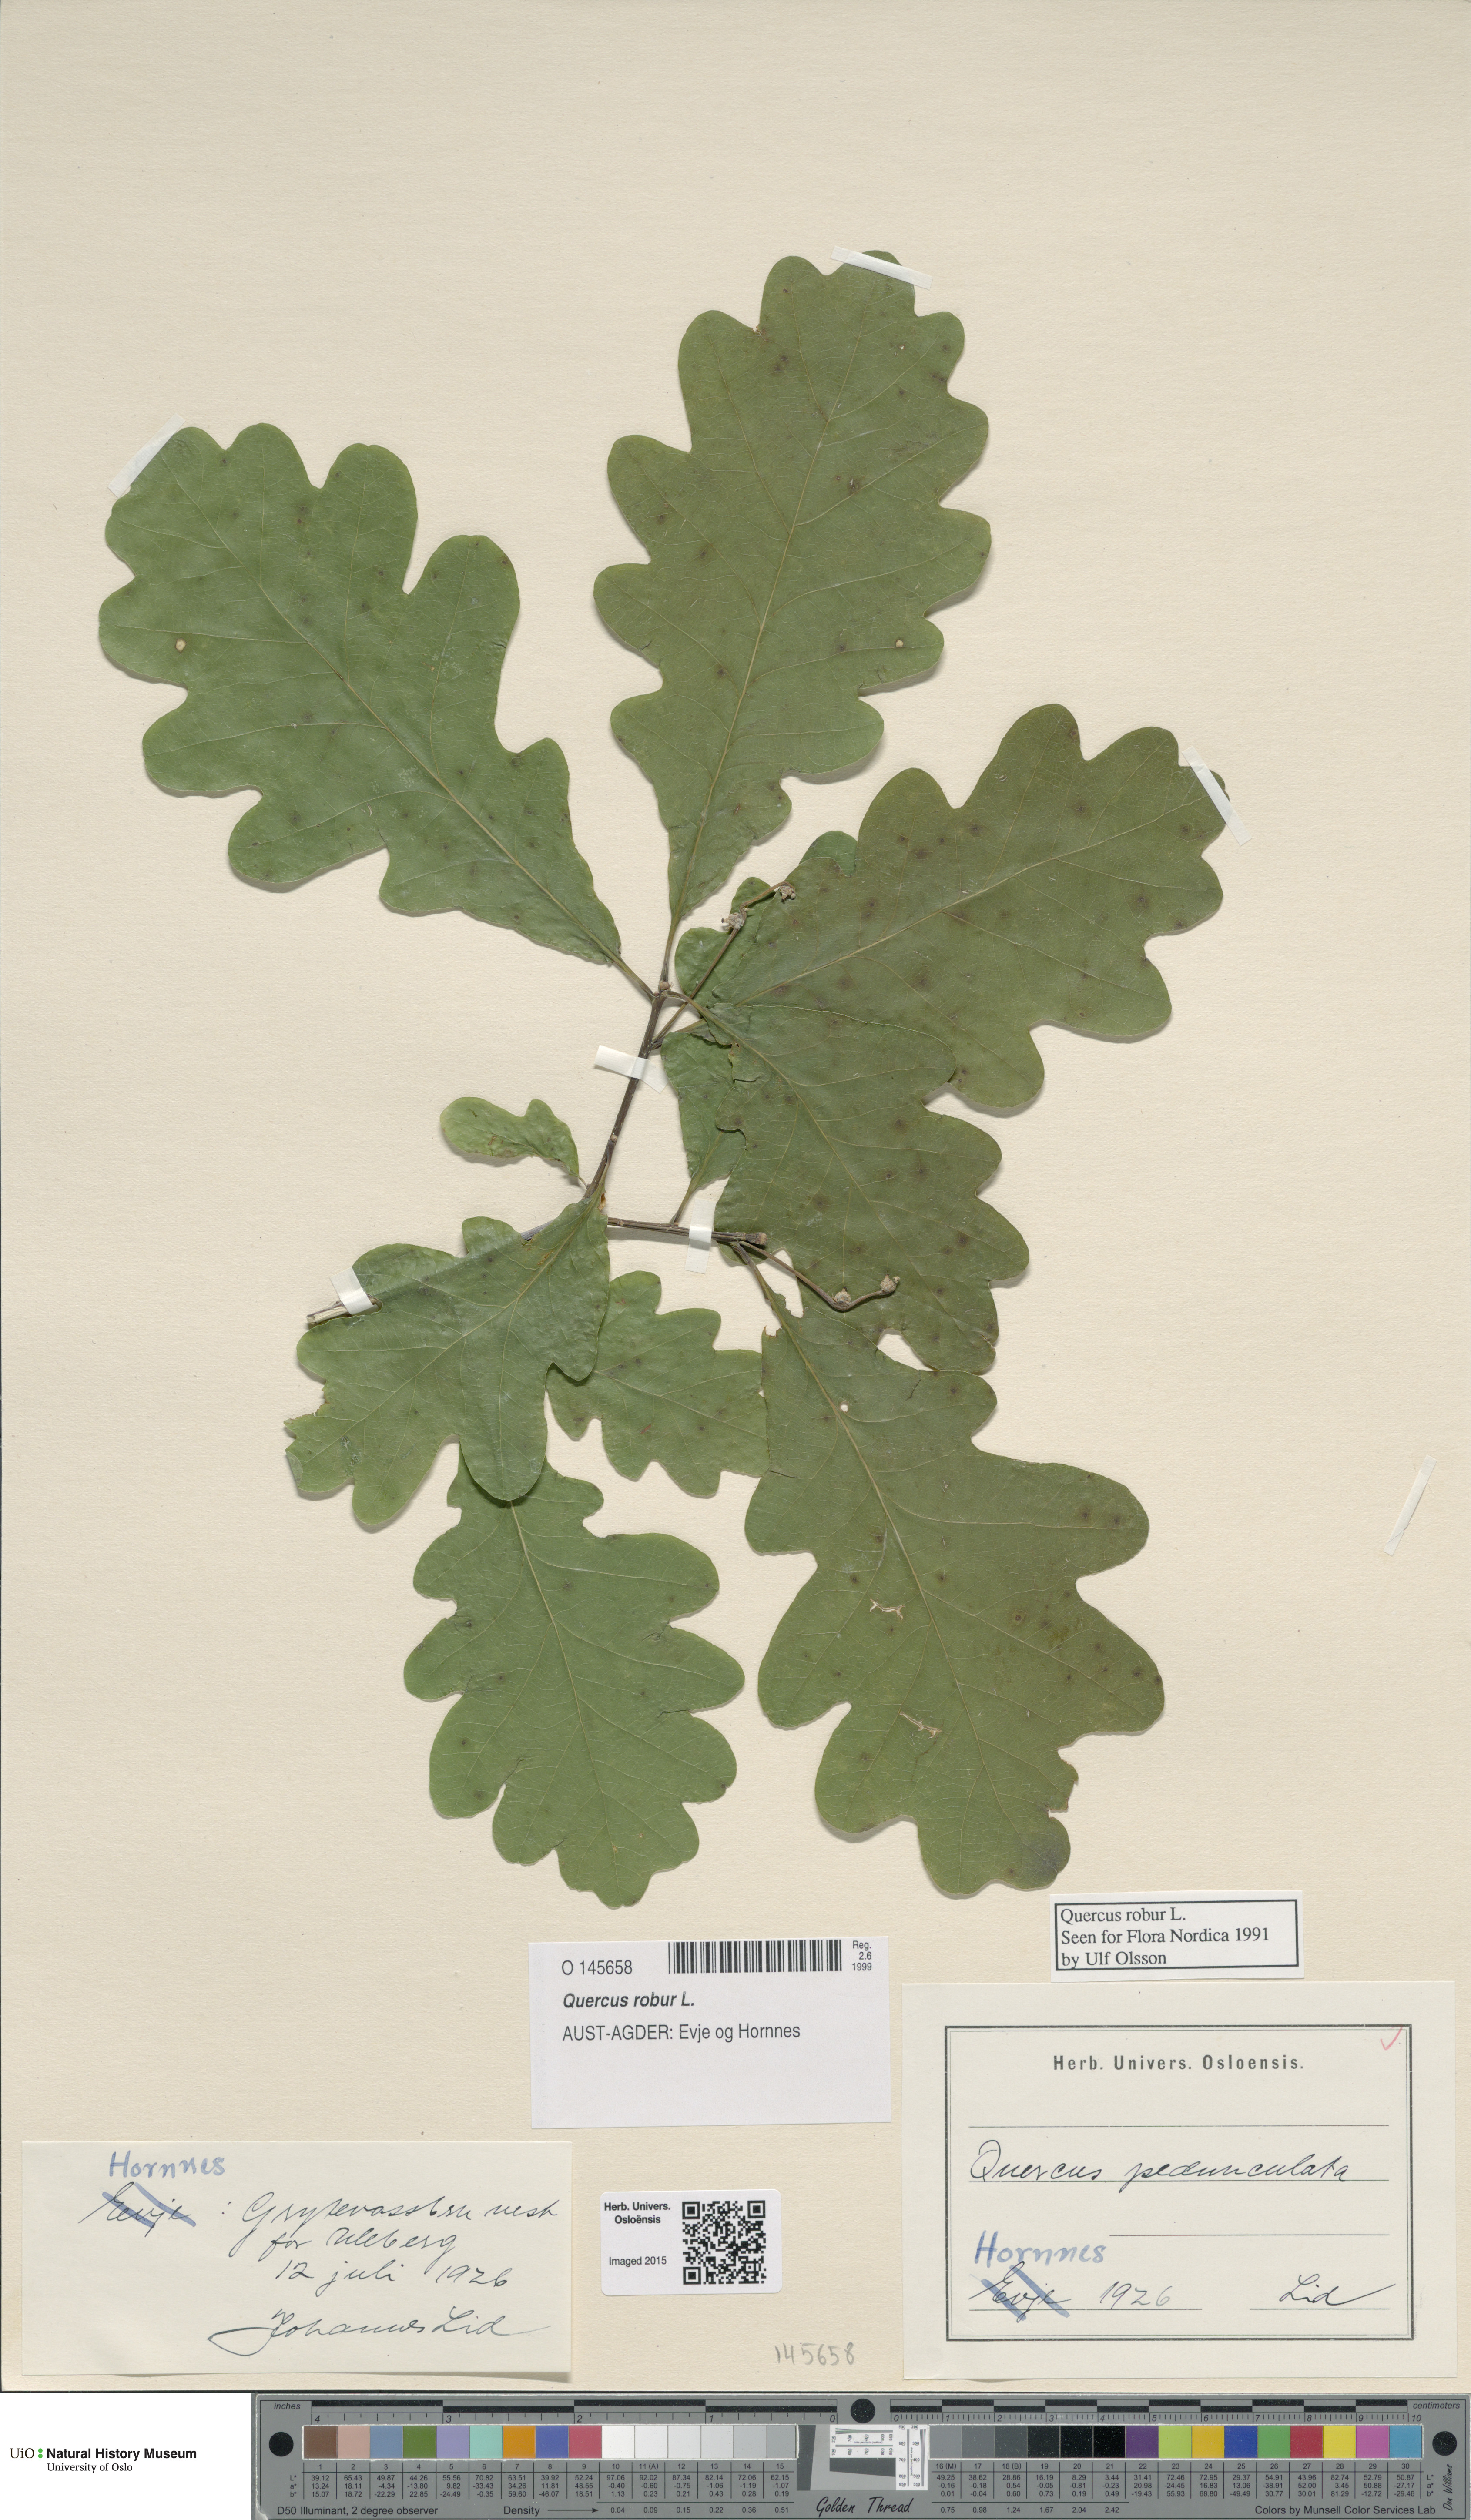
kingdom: Plantae
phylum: Tracheophyta
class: Magnoliopsida
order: Fagales
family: Fagaceae
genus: Quercus
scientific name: Quercus robur
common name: Pedunculate oak
